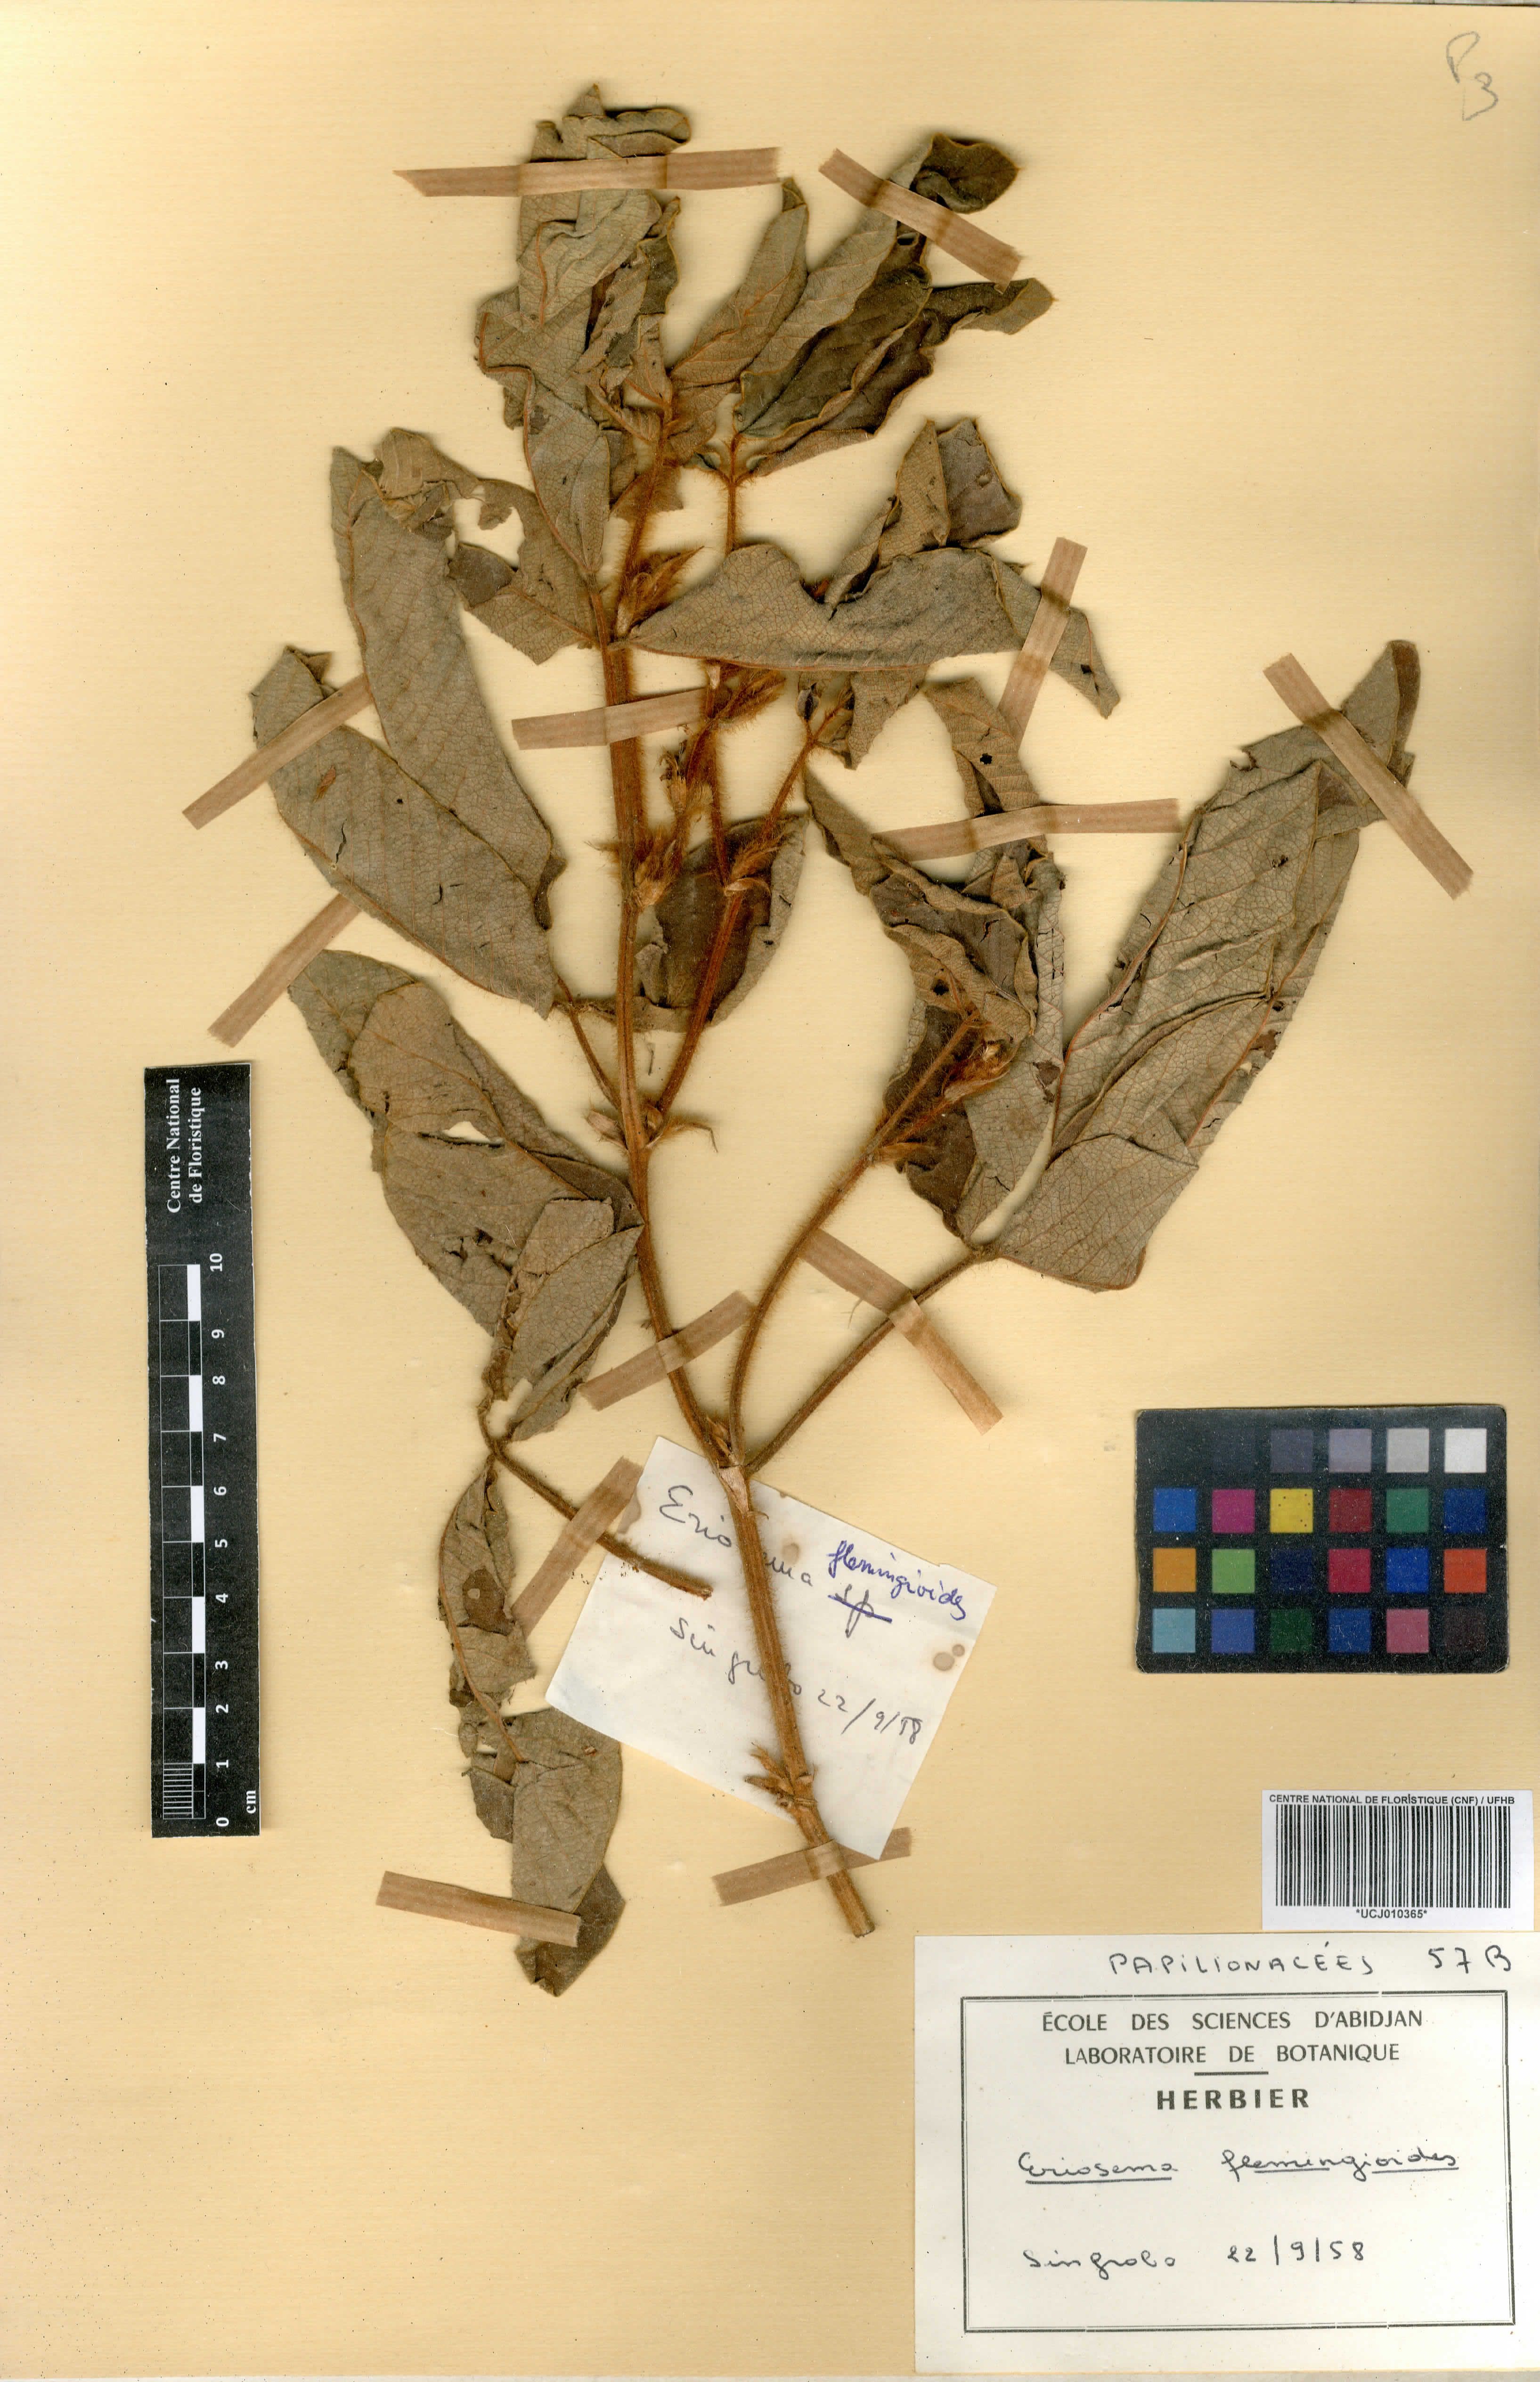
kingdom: Plantae
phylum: Tracheophyta
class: Magnoliopsida
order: Fabales
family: Fabaceae
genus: Eriosema
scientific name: Eriosema flemingioides
